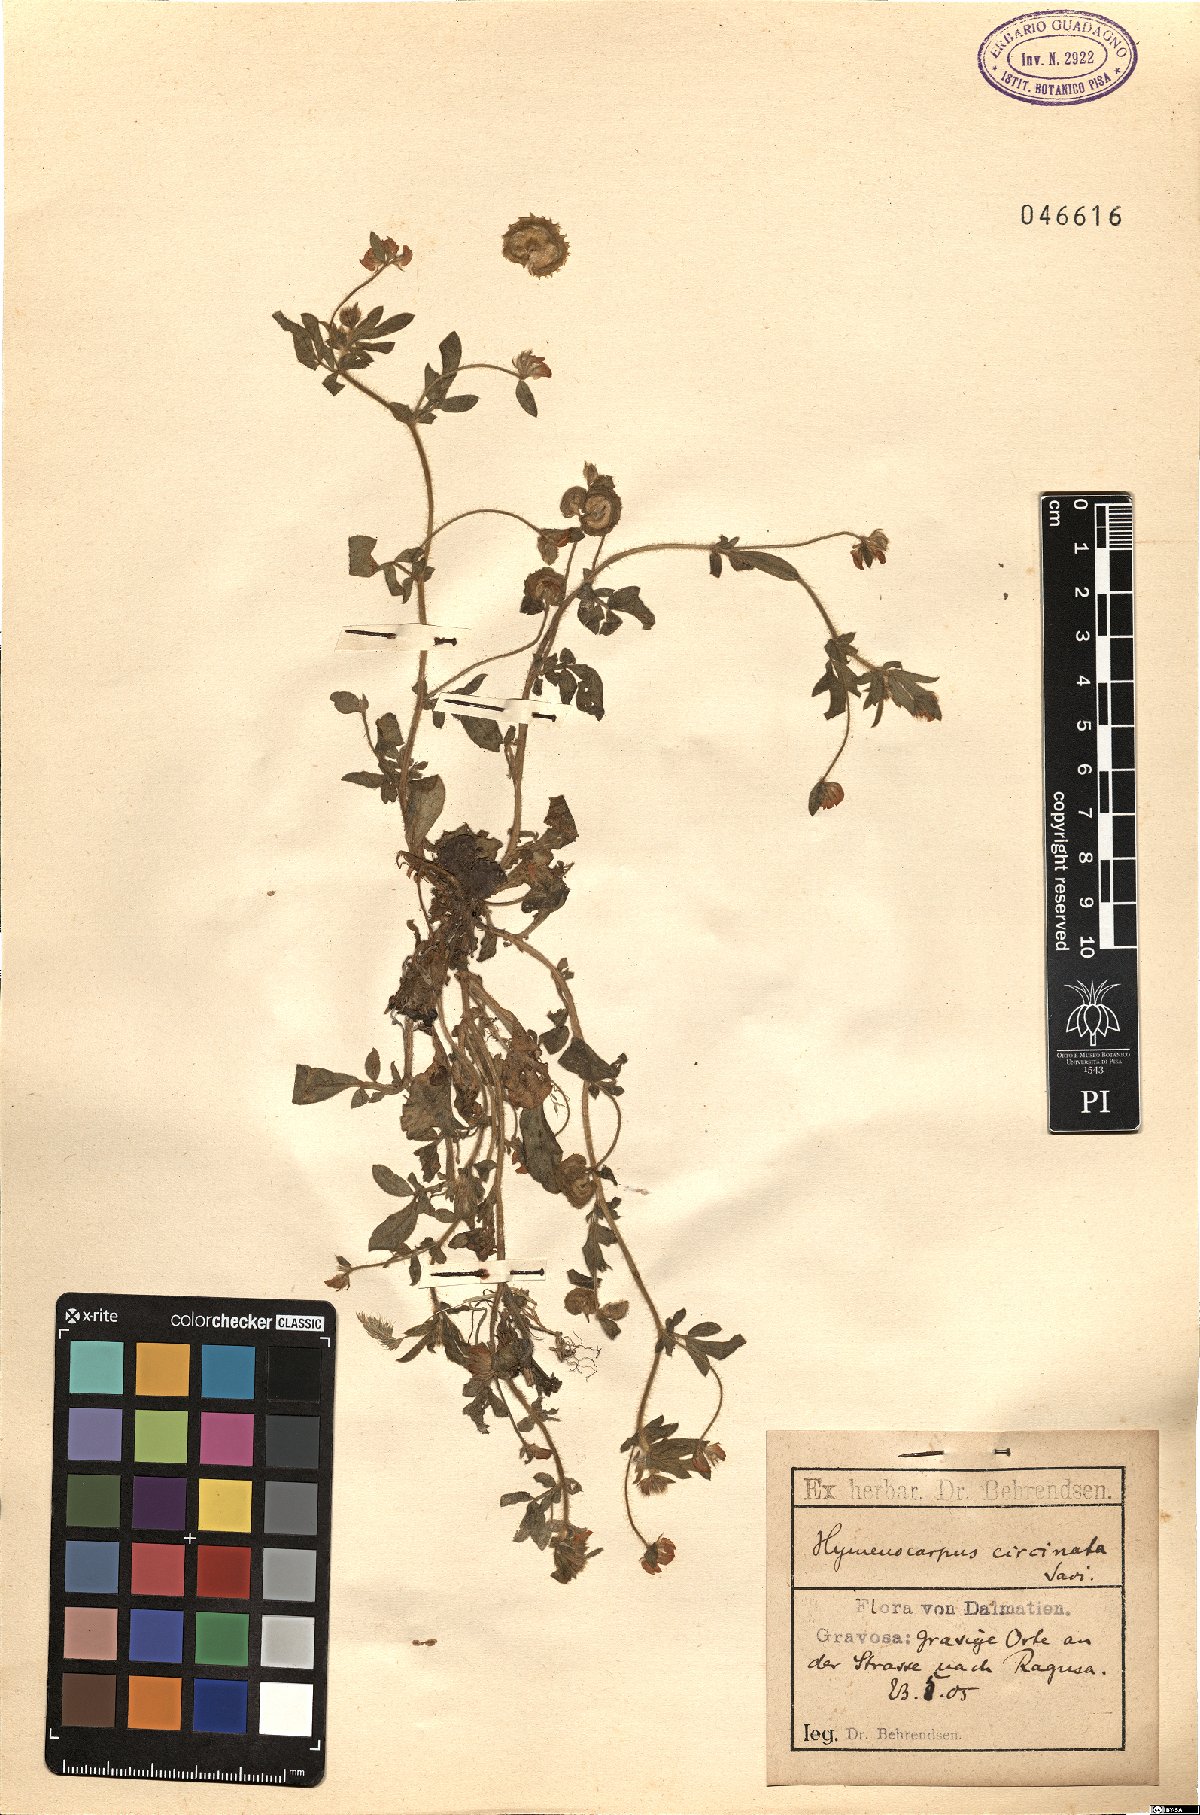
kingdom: Plantae
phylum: Tracheophyta
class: Magnoliopsida
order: Fabales
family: Fabaceae
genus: Anthyllis
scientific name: Anthyllis circinnata
